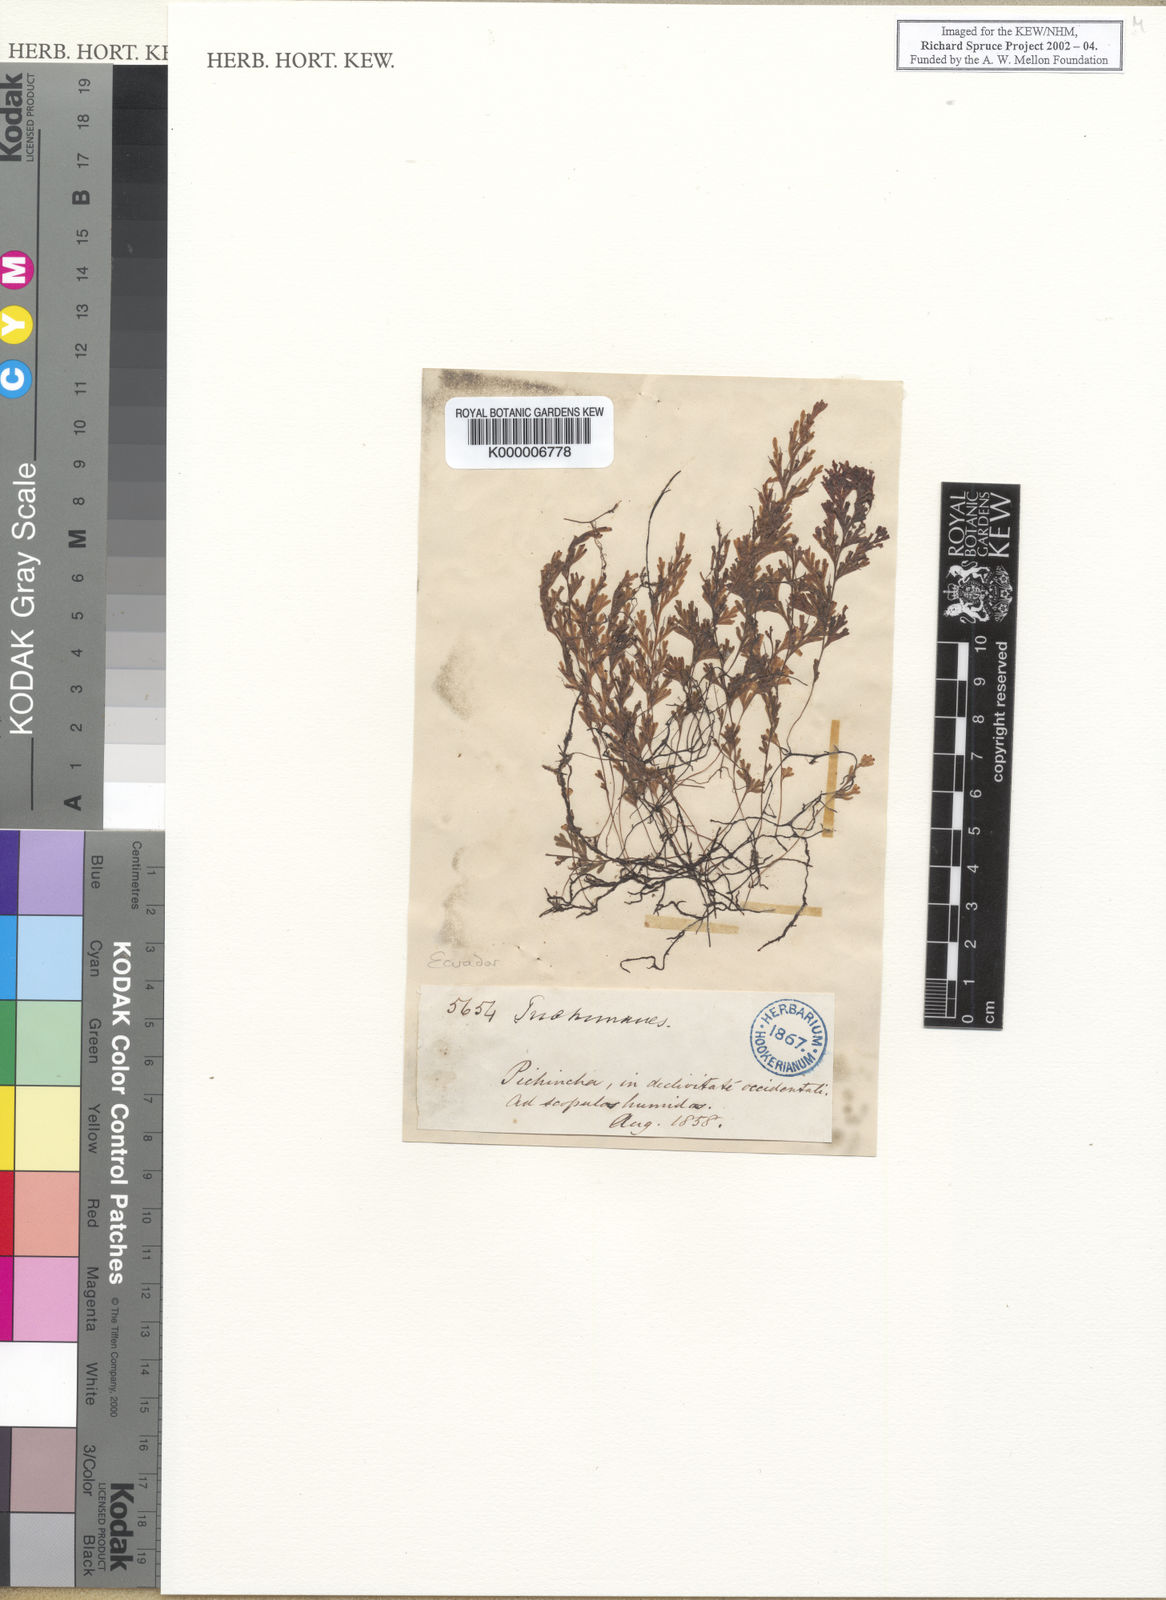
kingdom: Plantae
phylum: Tracheophyta
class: Polypodiopsida
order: Hymenophyllales
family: Hymenophyllaceae
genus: Trichomanes
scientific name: Trichomanes
